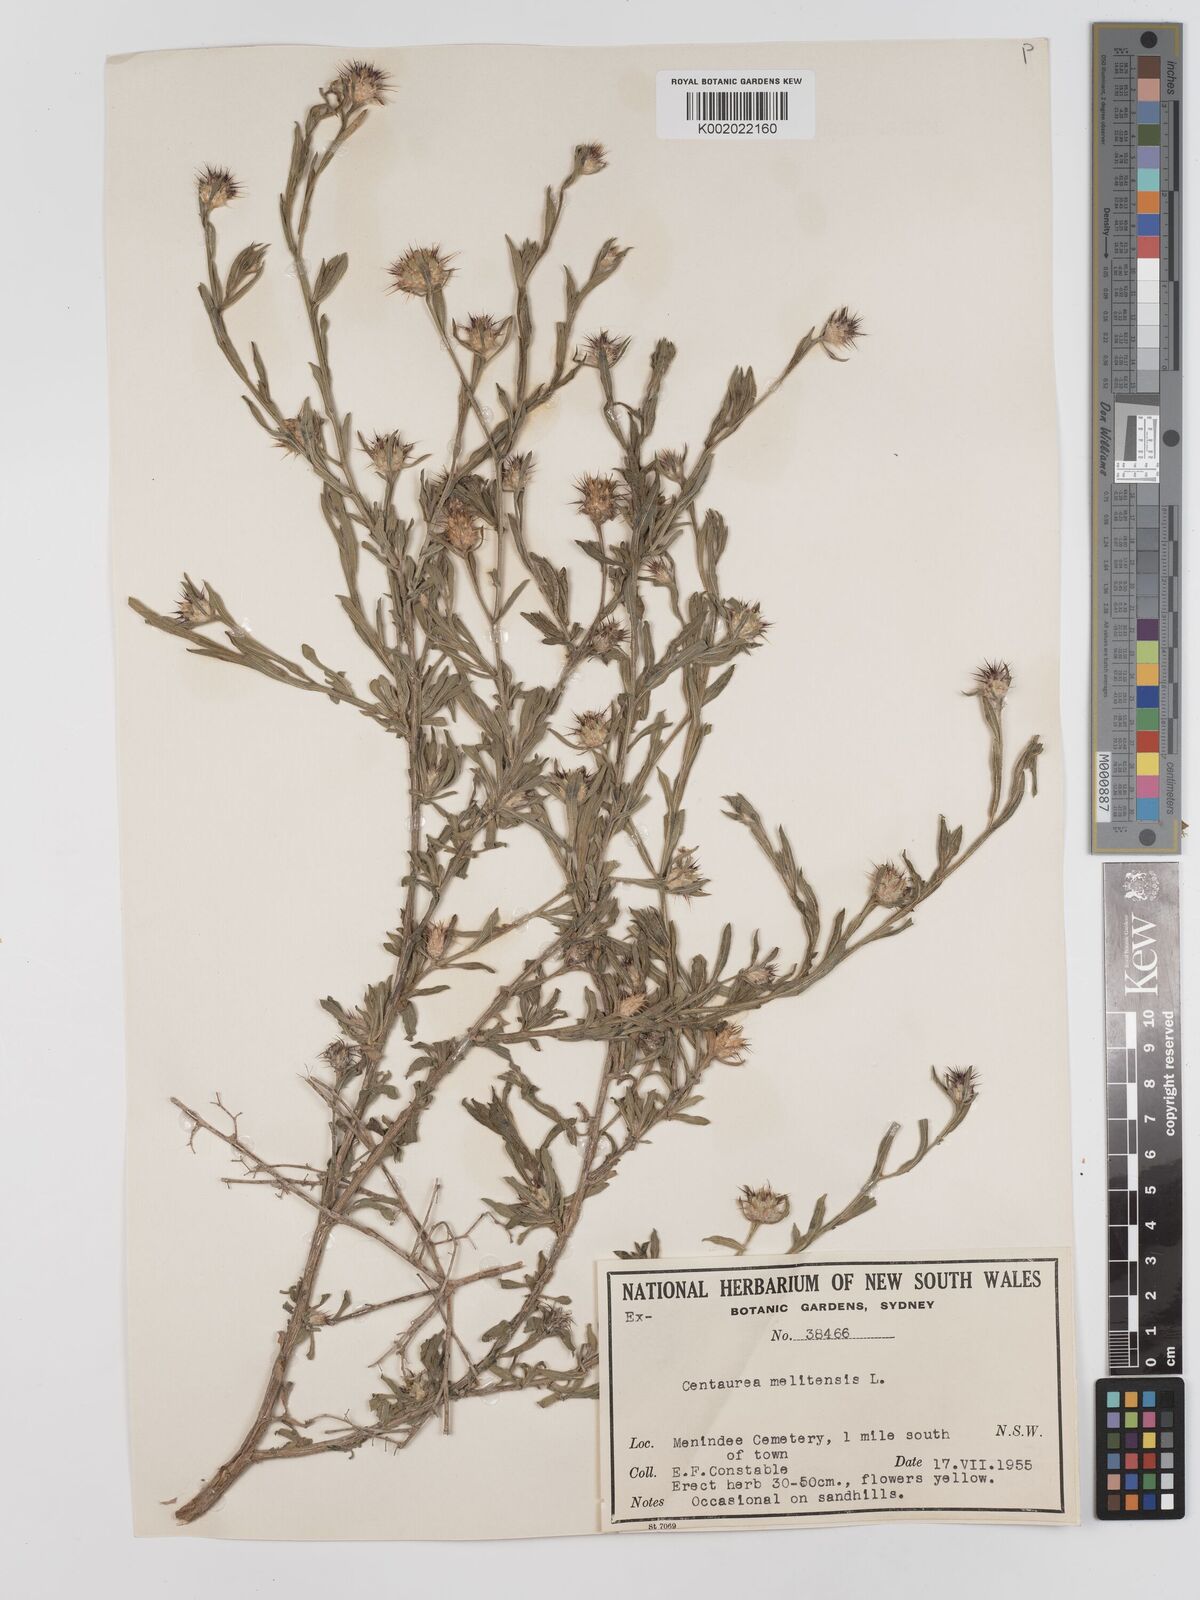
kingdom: Plantae
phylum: Tracheophyta
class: Magnoliopsida
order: Asterales
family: Asteraceae
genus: Centaurea
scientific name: Centaurea melitensis
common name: Maltese star-thistle
